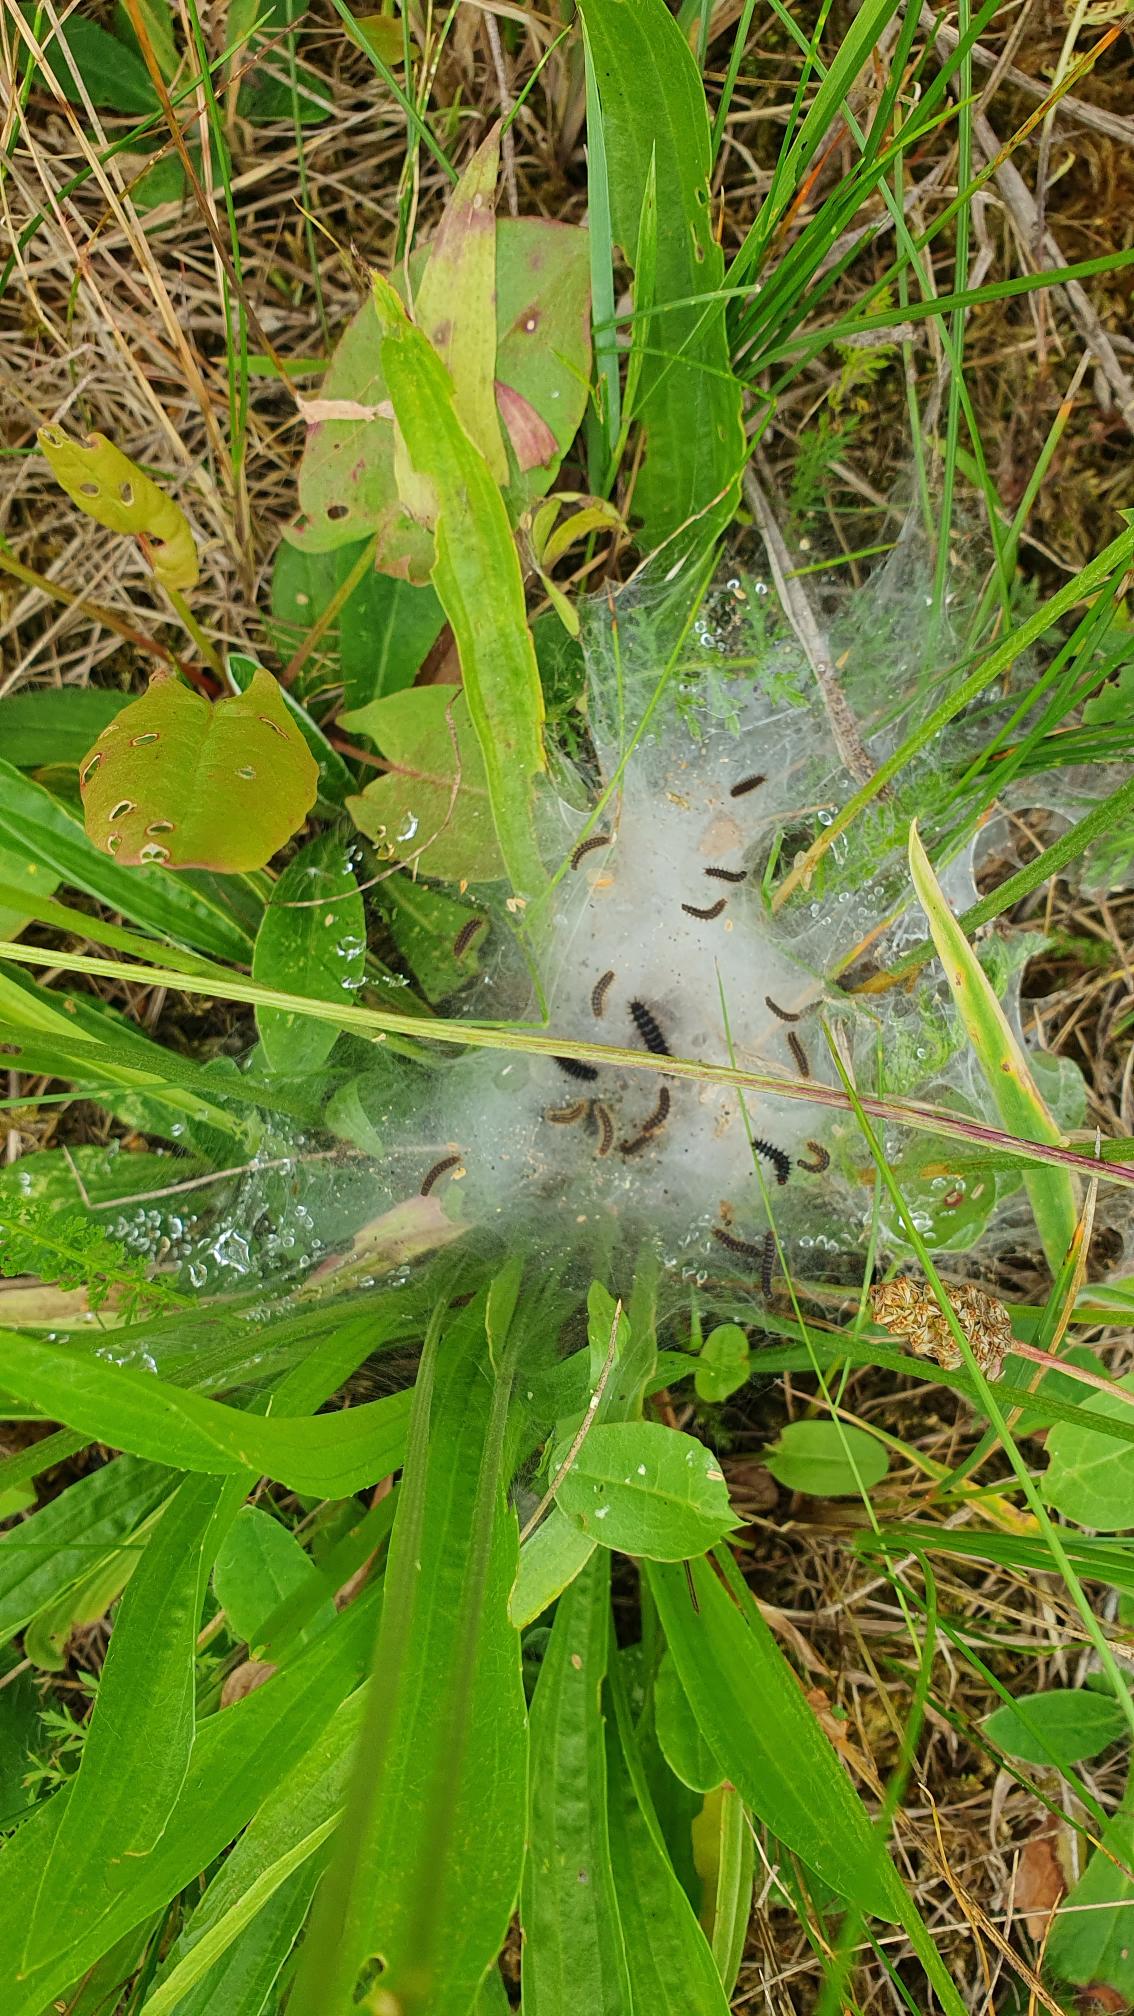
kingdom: Animalia
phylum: Arthropoda
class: Insecta
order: Lepidoptera
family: Nymphalidae
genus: Melitaea
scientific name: Melitaea cinxia
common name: Okkergul pletvinge
